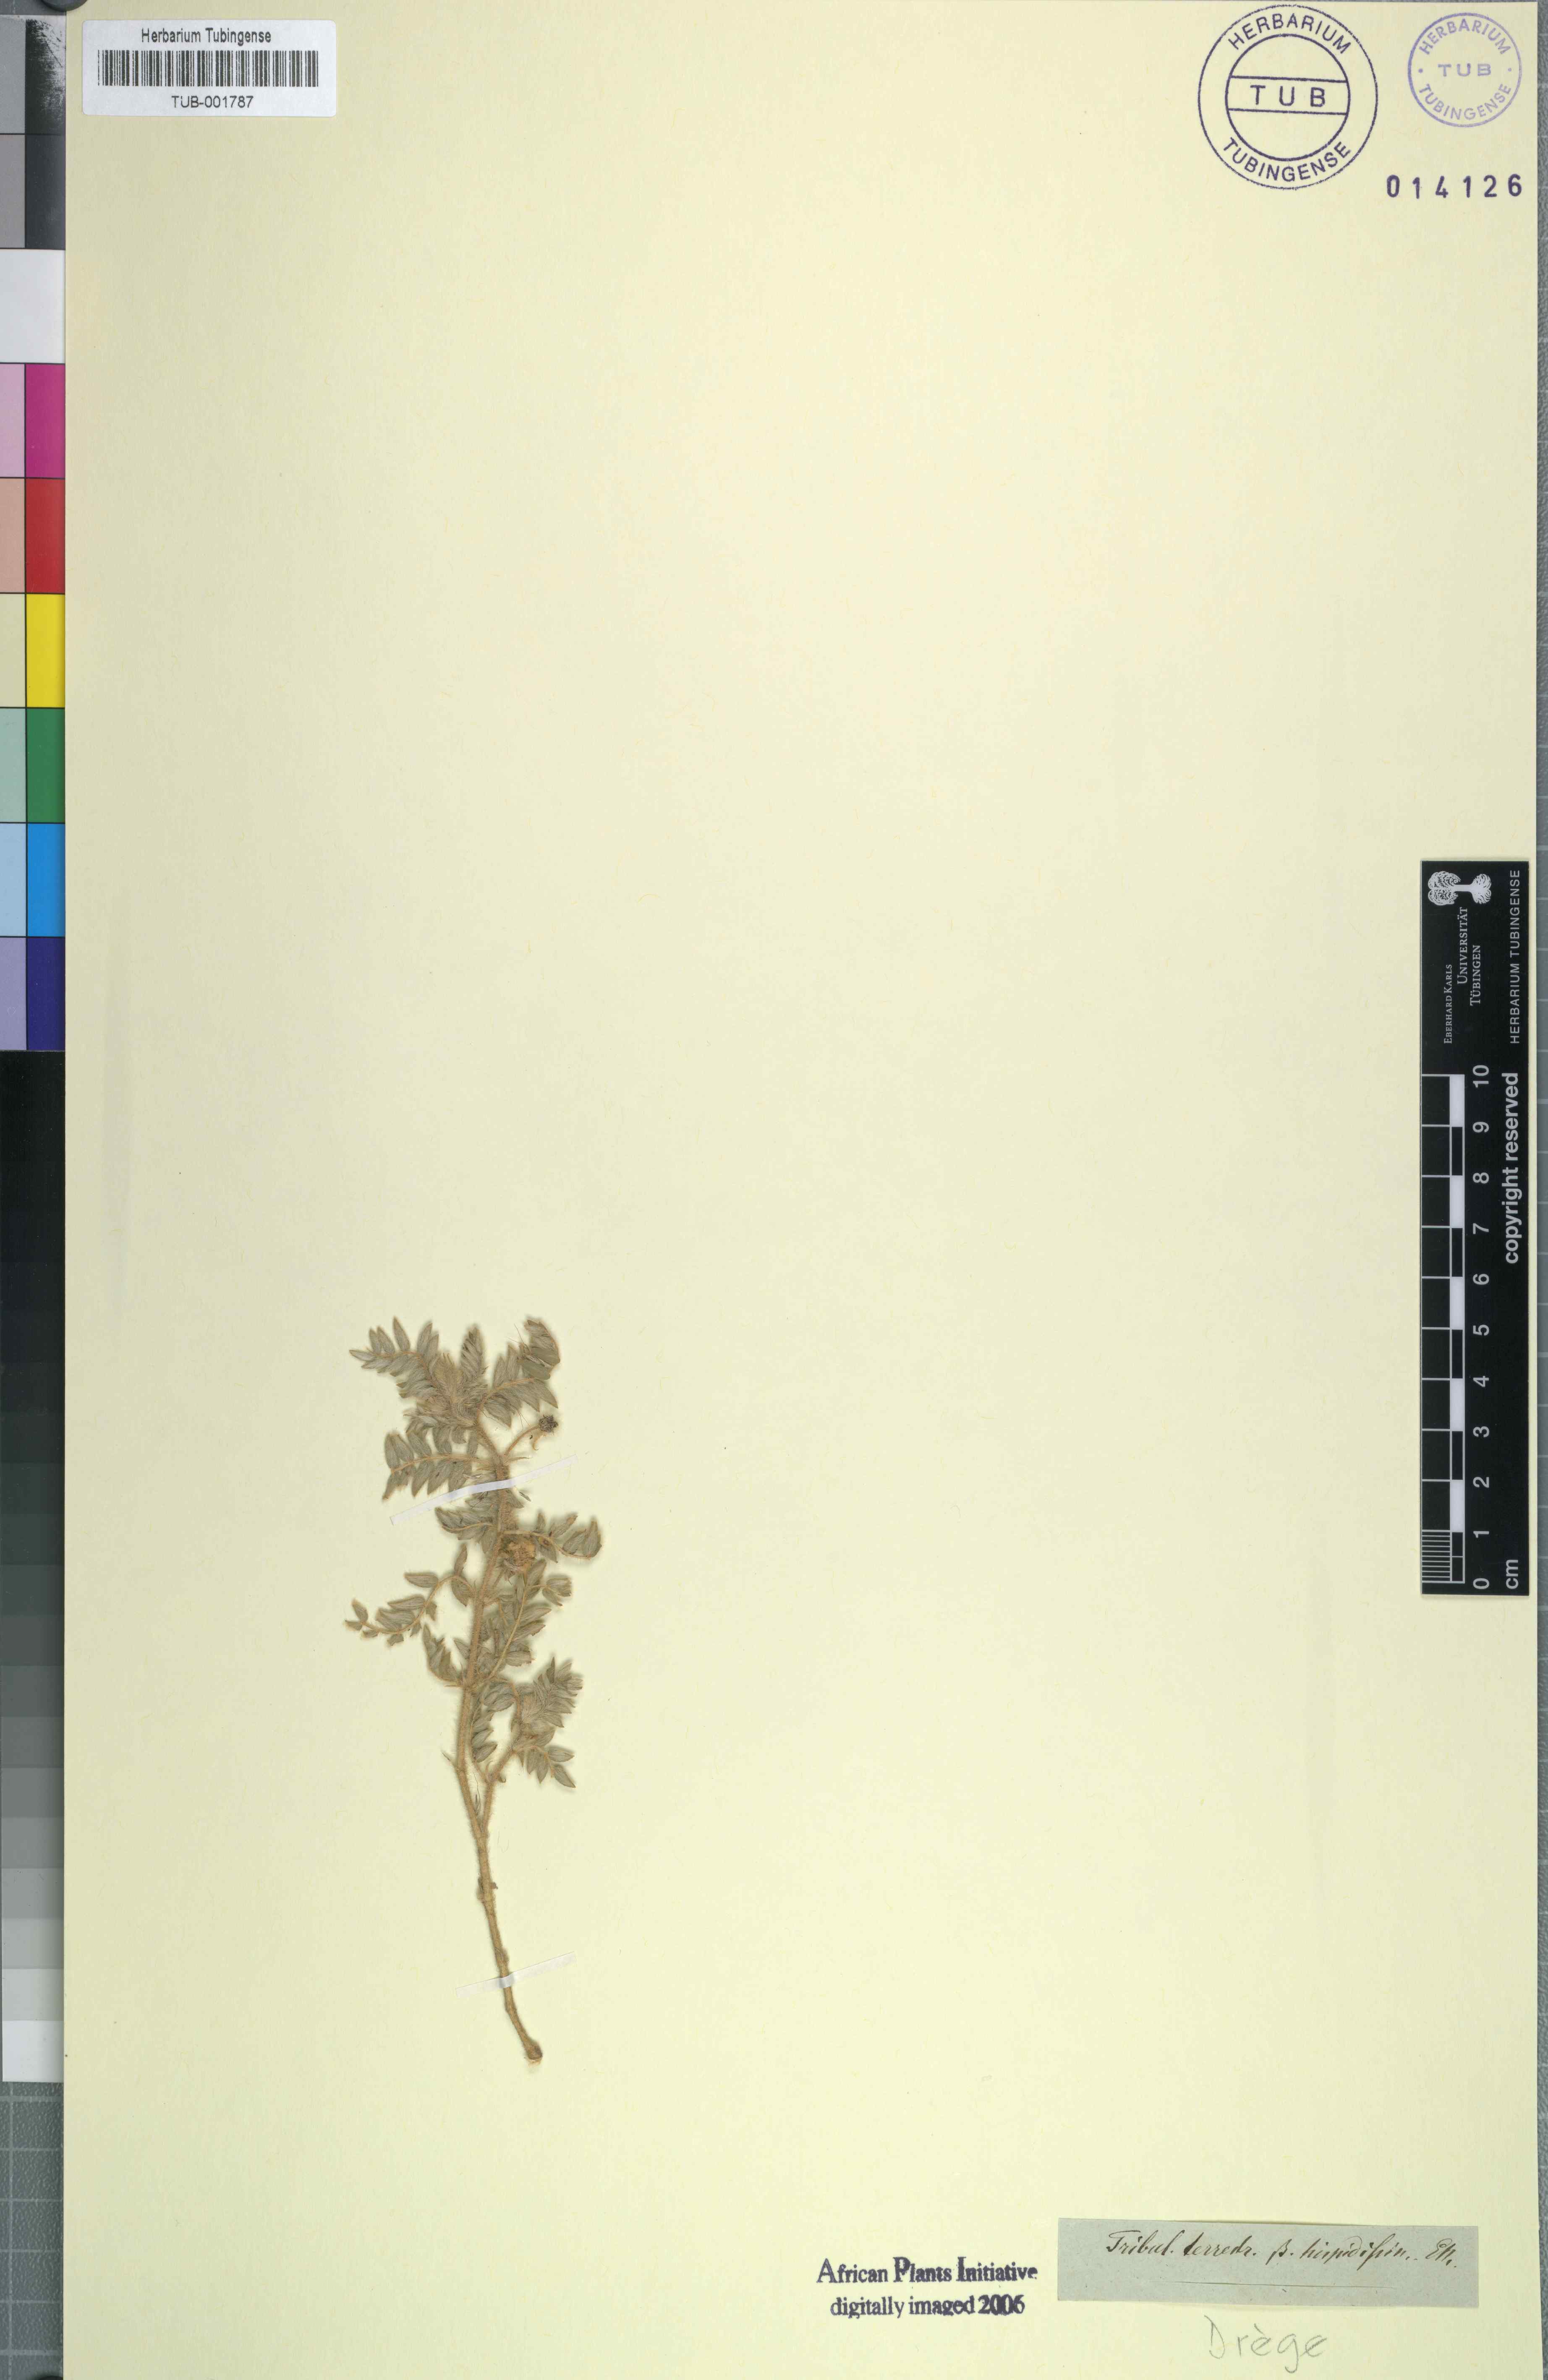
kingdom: Plantae
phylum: Tracheophyta
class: Magnoliopsida
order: Zygophyllales
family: Zygophyllaceae
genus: Tribulus
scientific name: Tribulus terrestris
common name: Puncturevine
